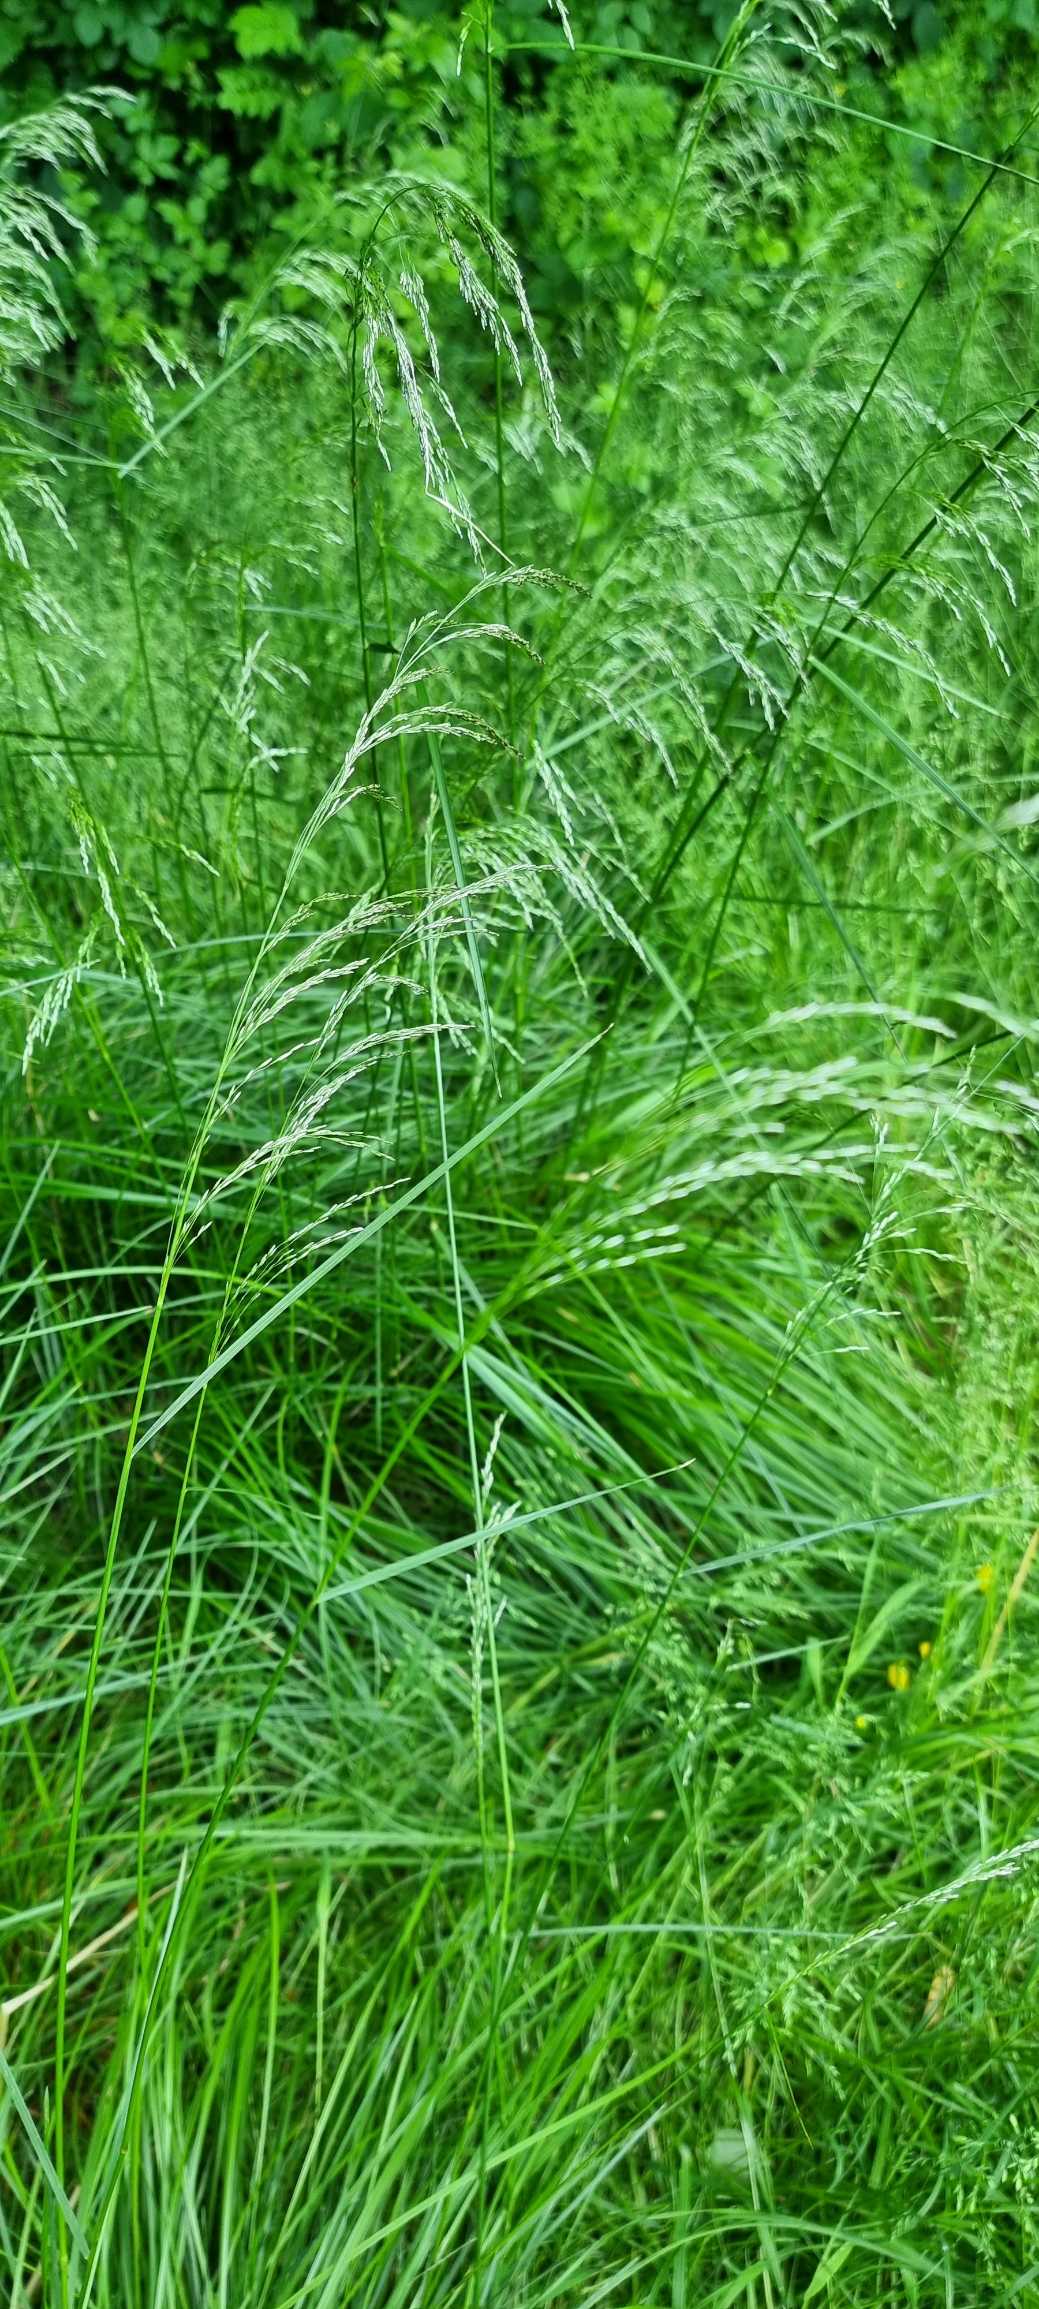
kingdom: Plantae
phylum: Tracheophyta
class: Liliopsida
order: Poales
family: Poaceae
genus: Deschampsia
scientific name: Deschampsia cespitosa
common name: Mose-bunke
